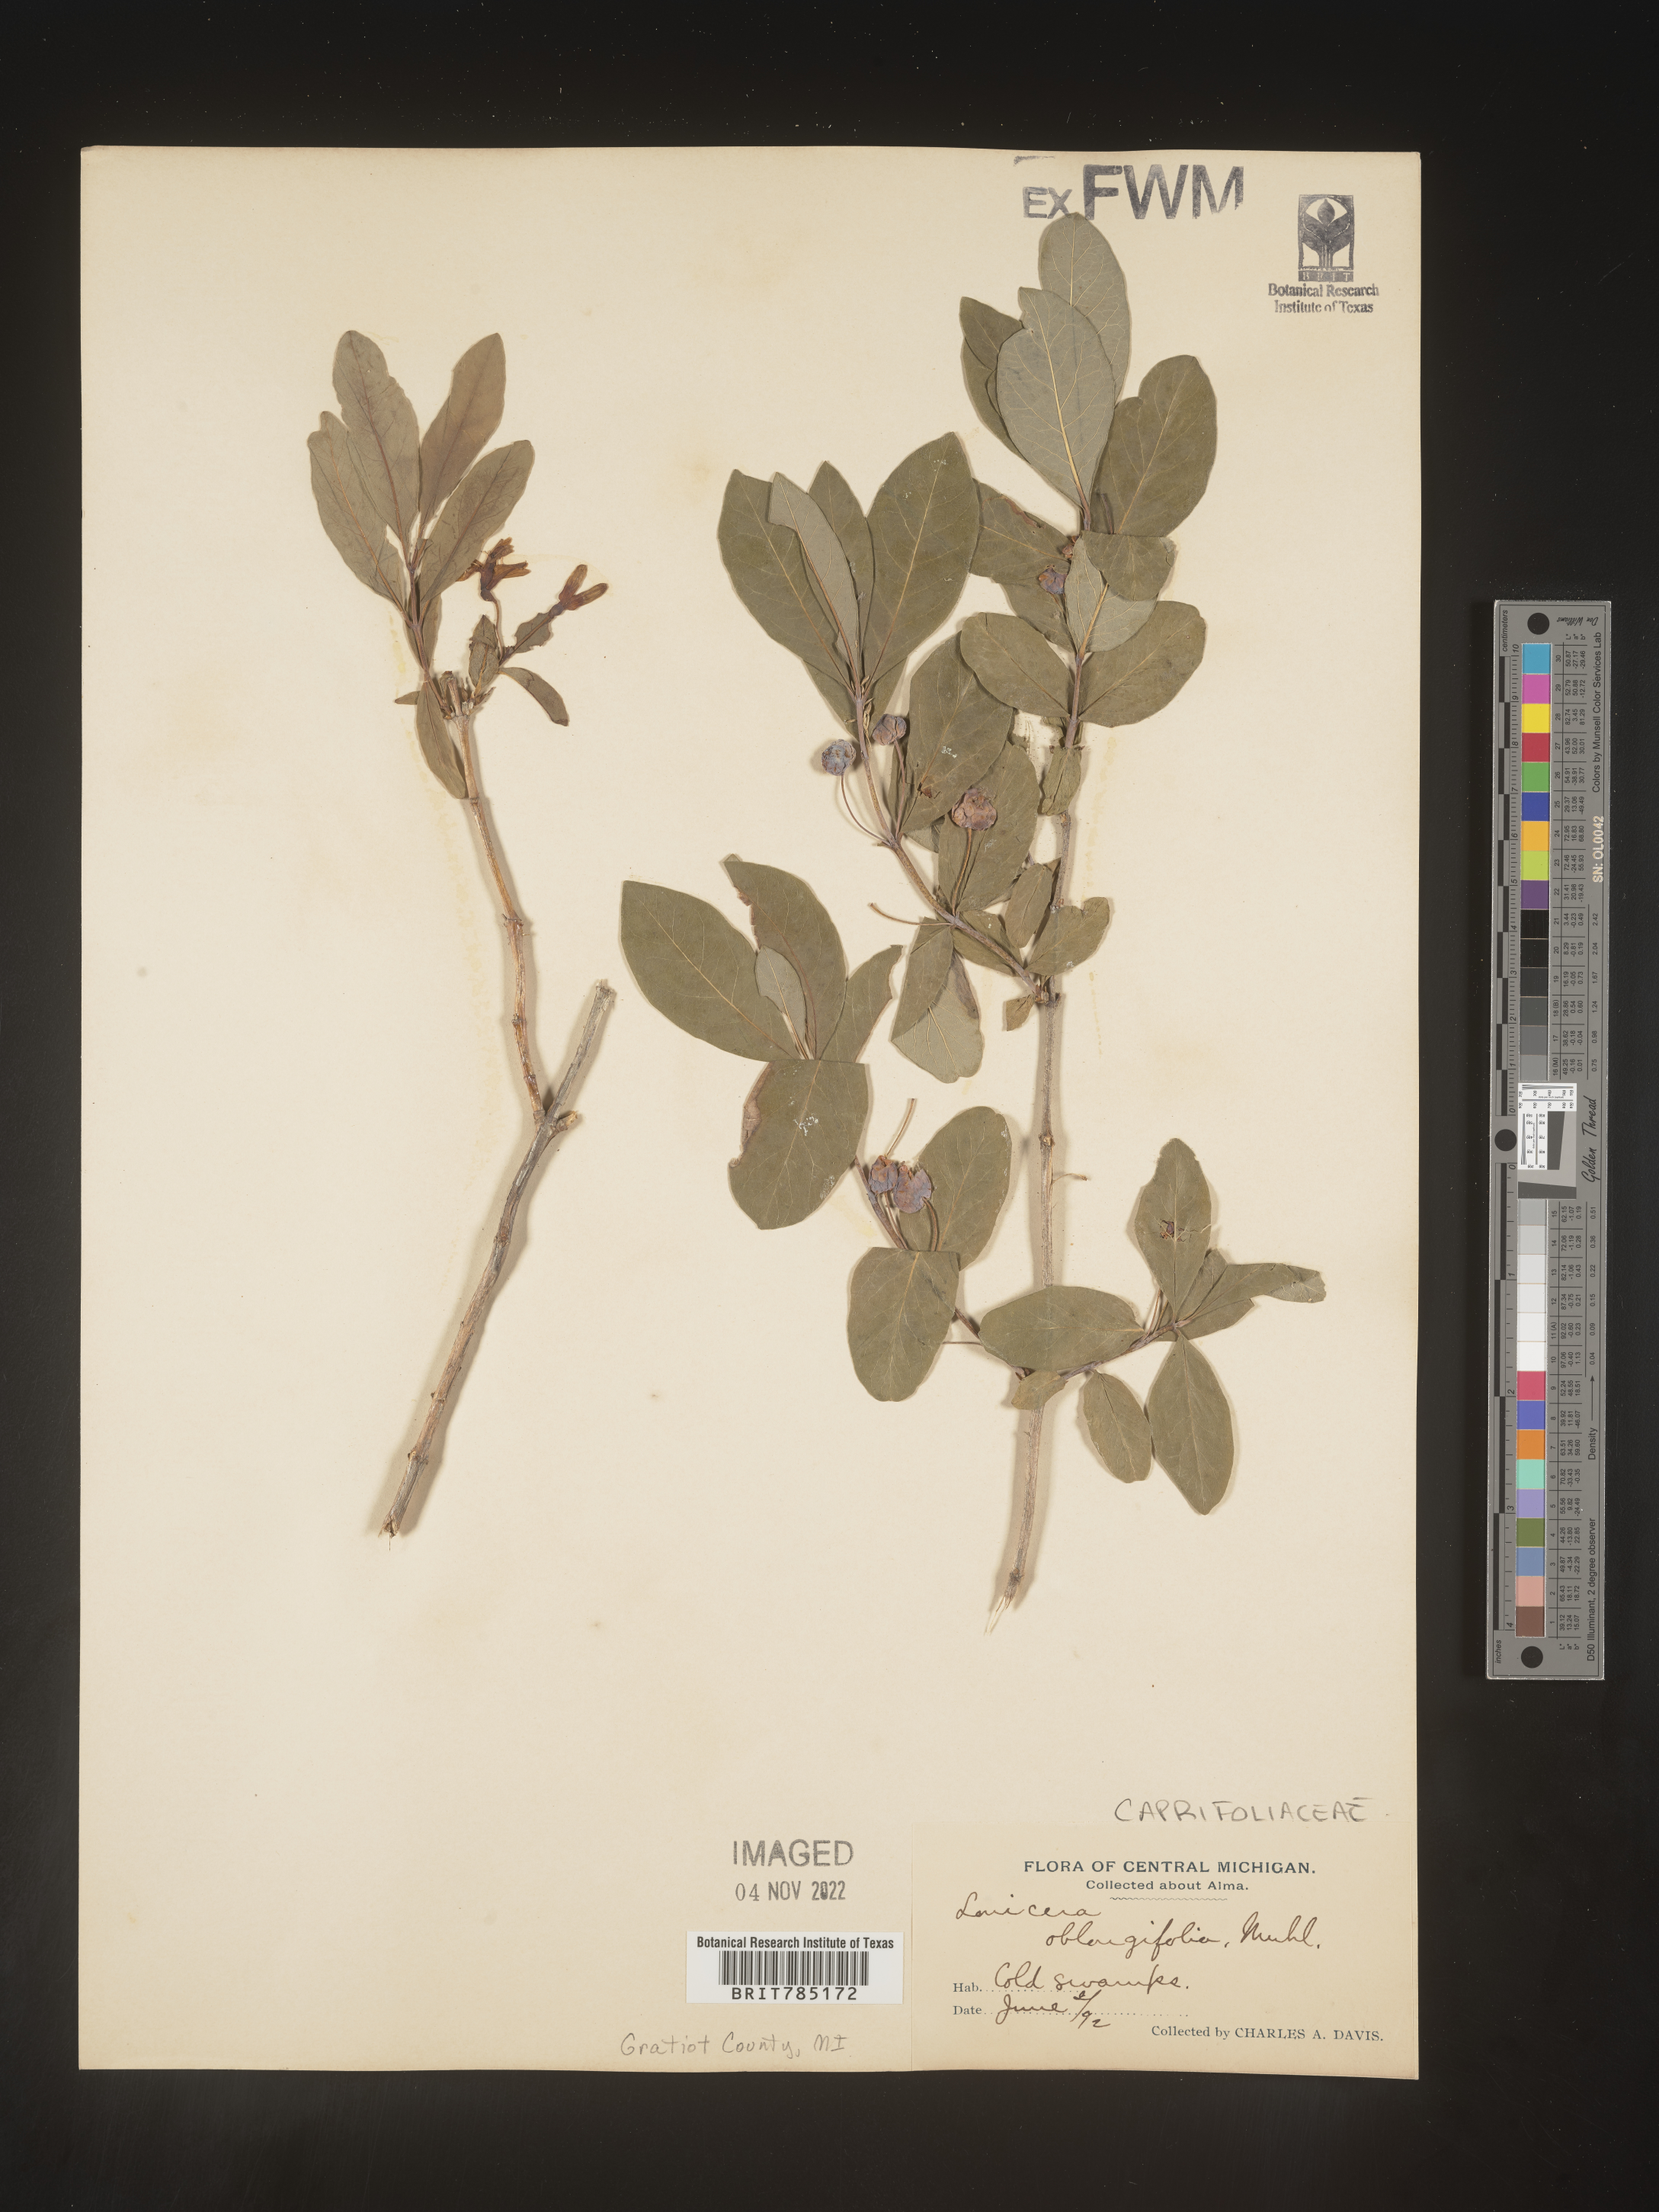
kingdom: Plantae
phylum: Tracheophyta
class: Magnoliopsida
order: Dipsacales
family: Caprifoliaceae
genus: Lonicera
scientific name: Lonicera
